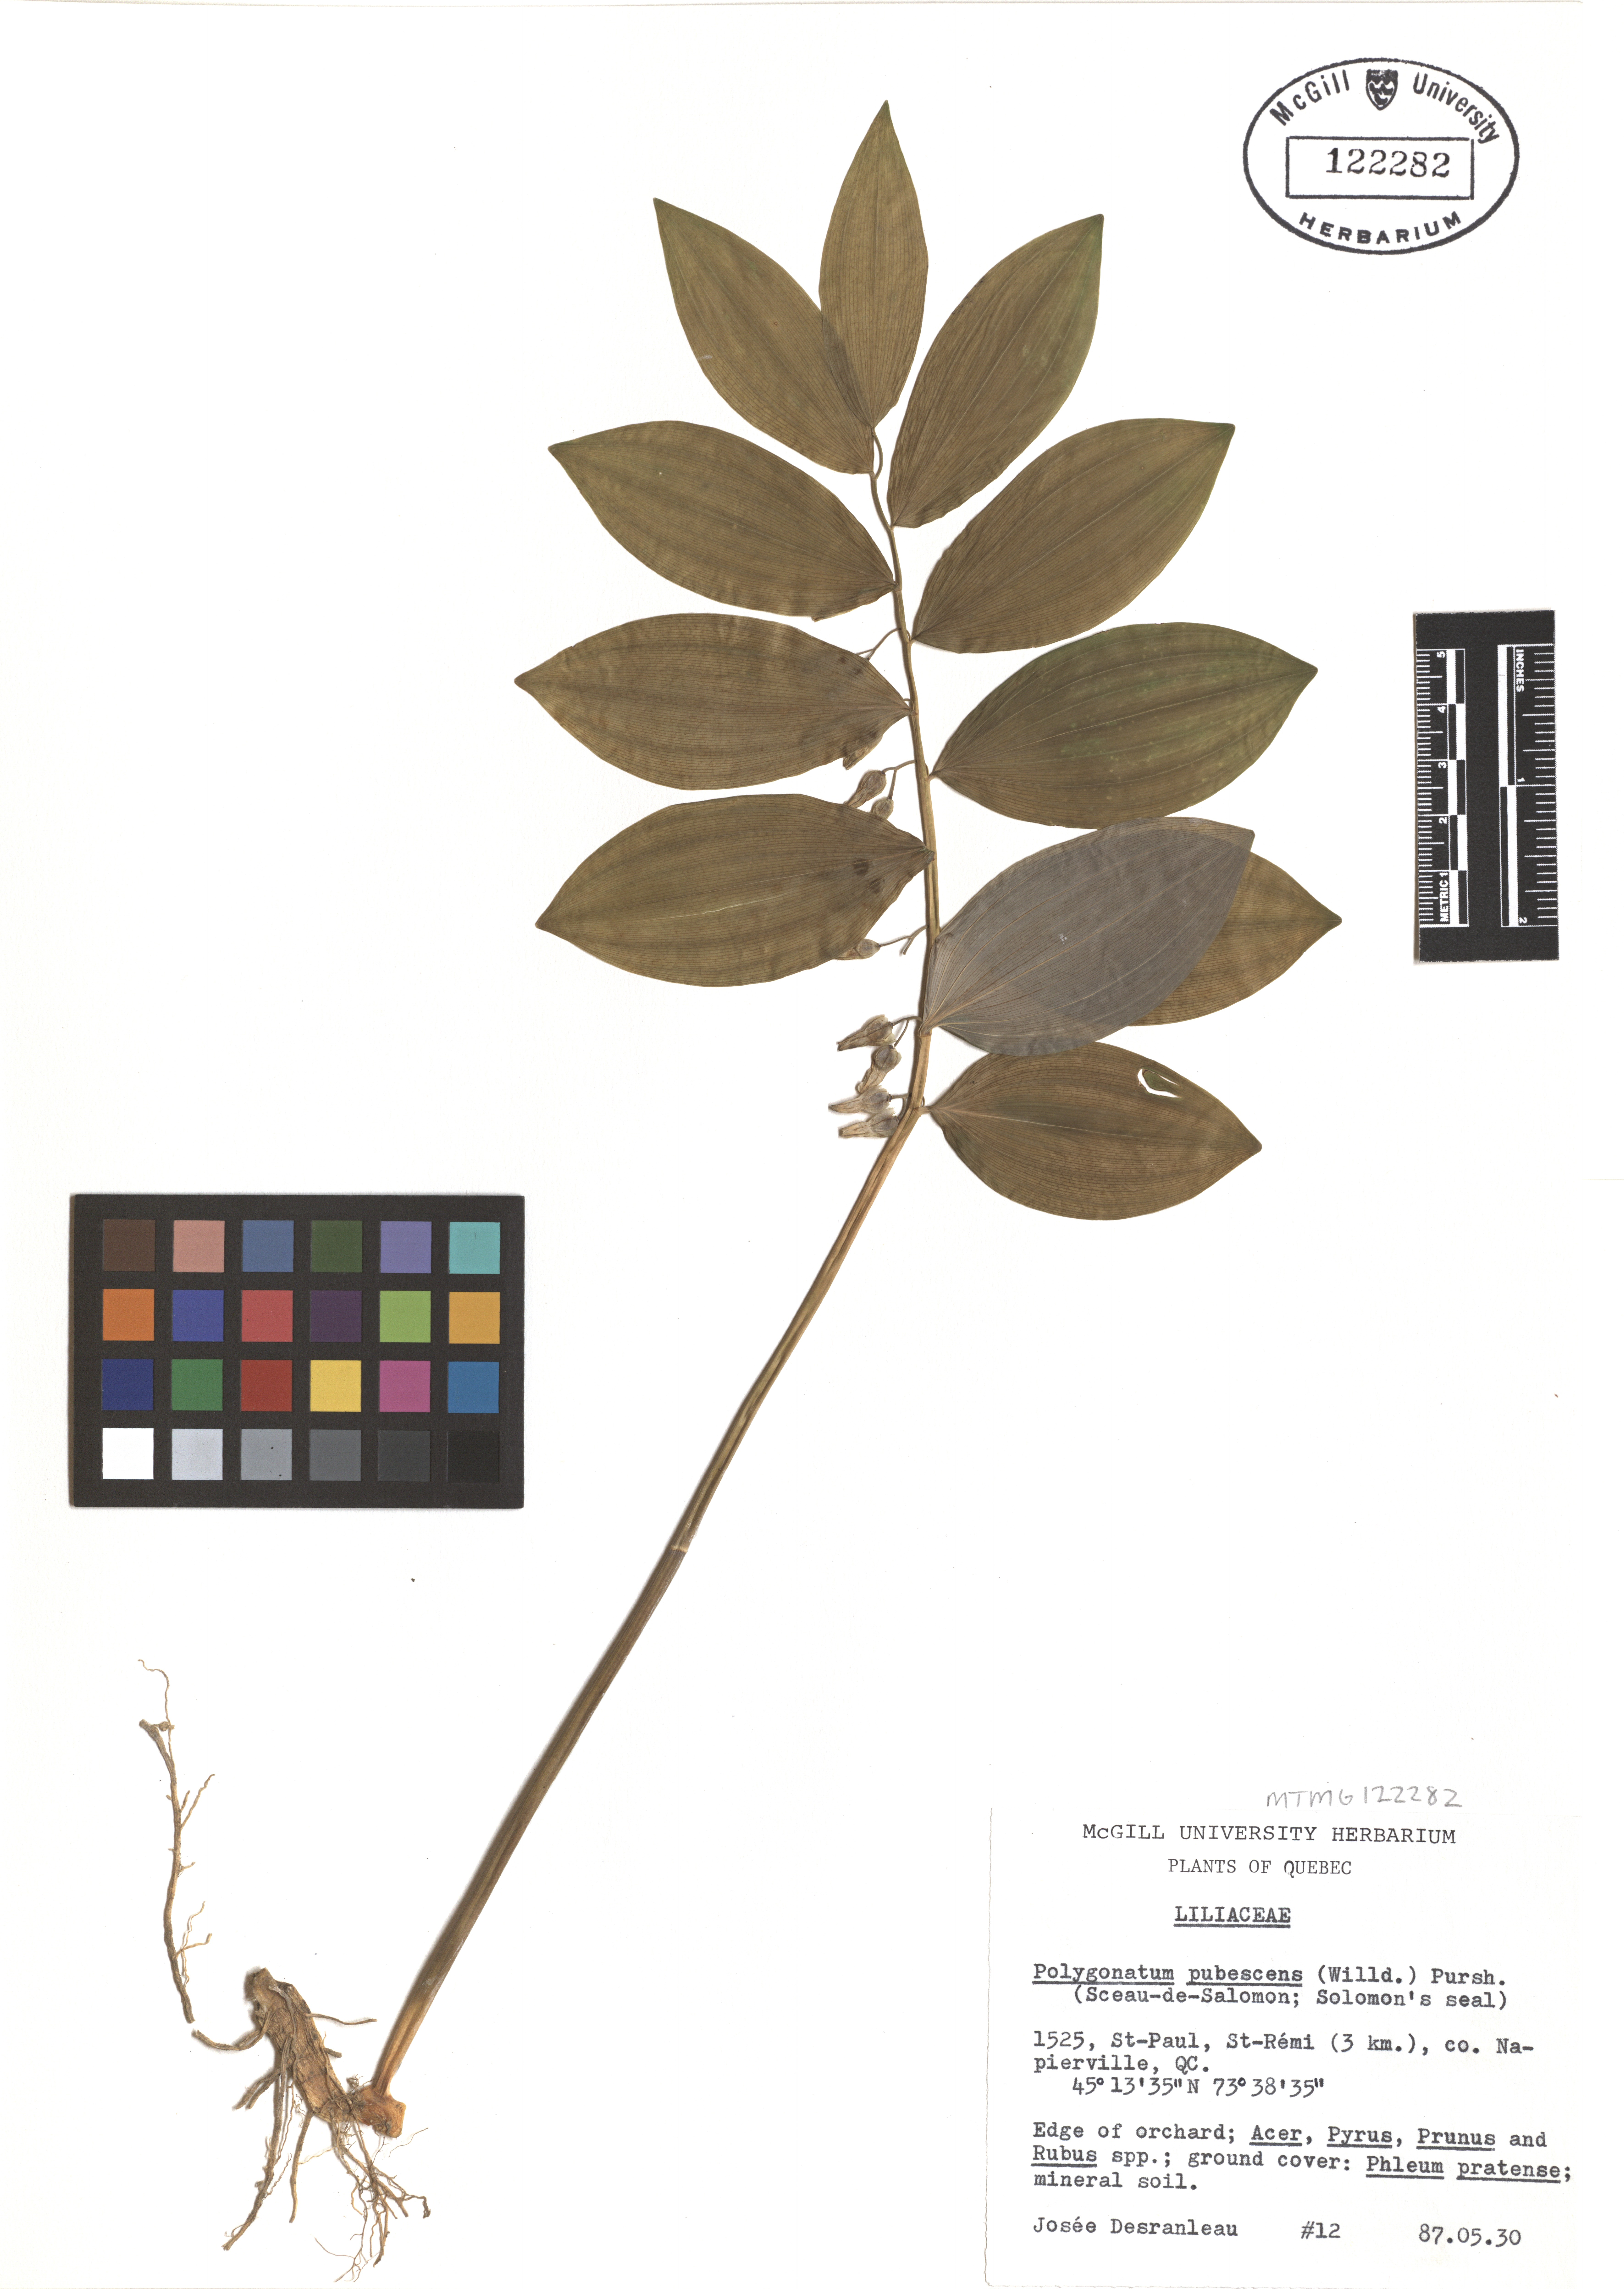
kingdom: Plantae
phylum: Tracheophyta
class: Liliopsida
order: Asparagales
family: Asparagaceae
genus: Polygonatum
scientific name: Polygonatum pubescens
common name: Downy solomon's seal
